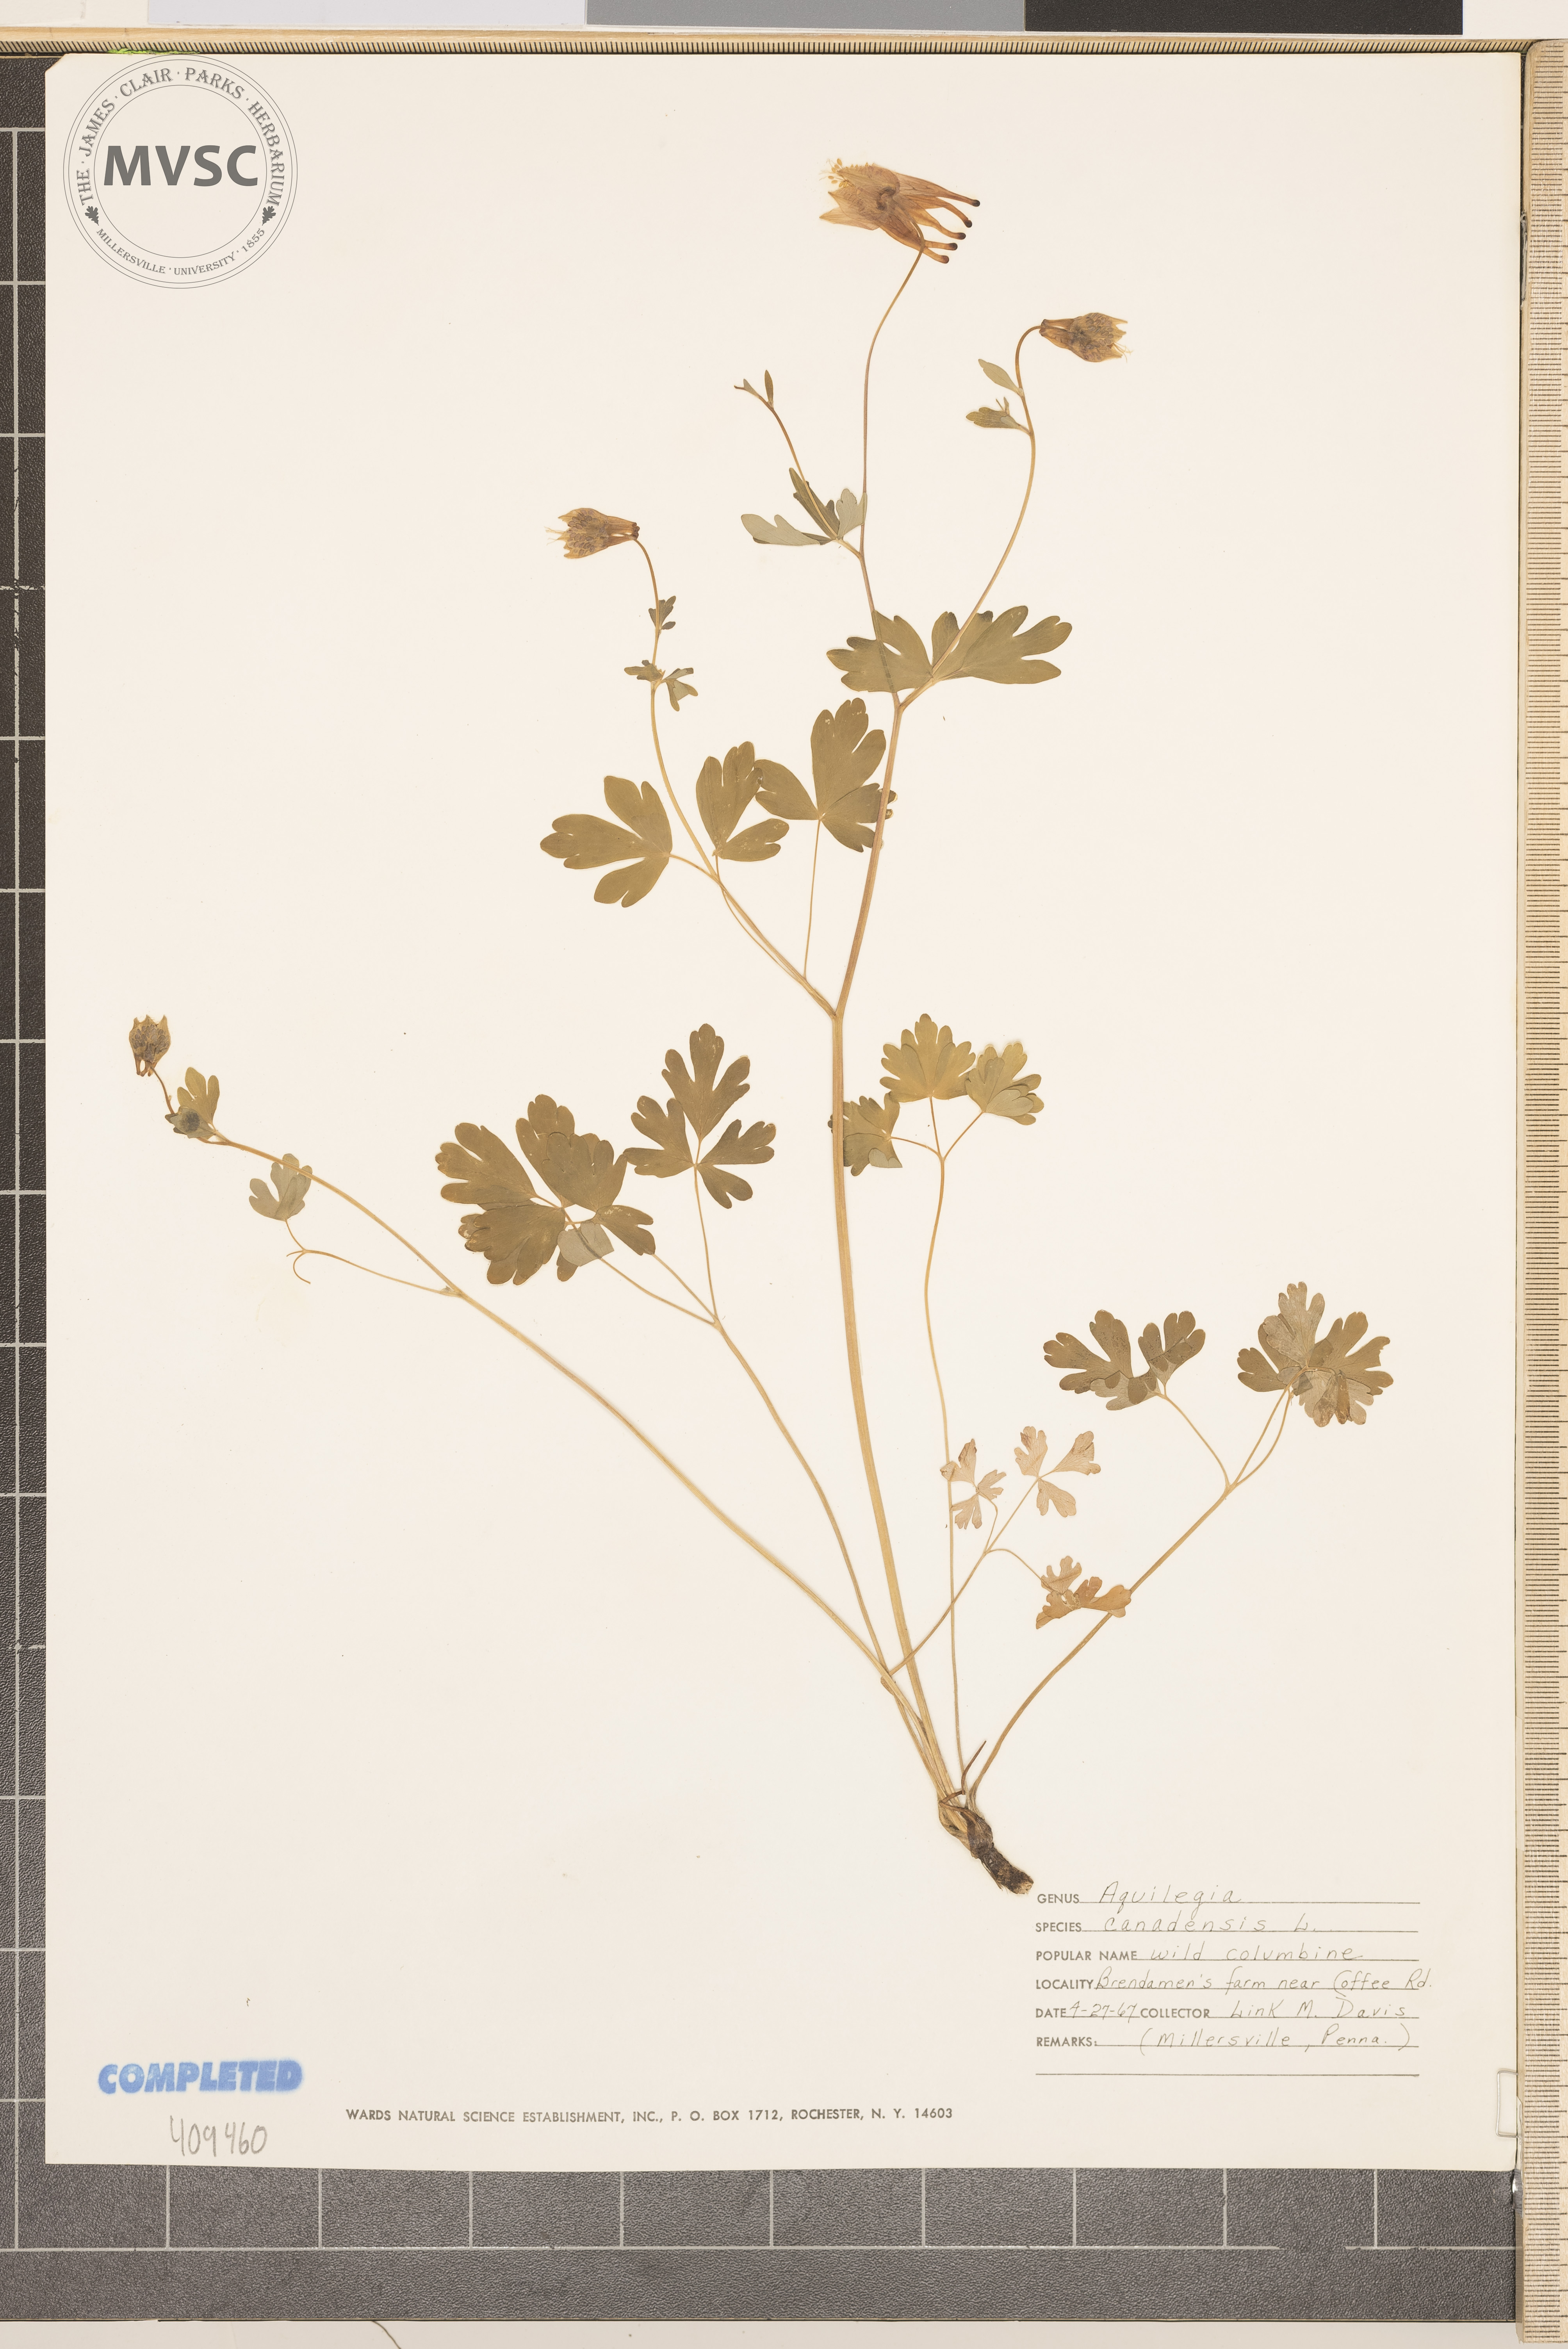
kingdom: Plantae
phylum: Tracheophyta
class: Magnoliopsida
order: Ranunculales
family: Ranunculaceae
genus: Aquilegia
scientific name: Aquilegia canadensis
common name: American columbine
